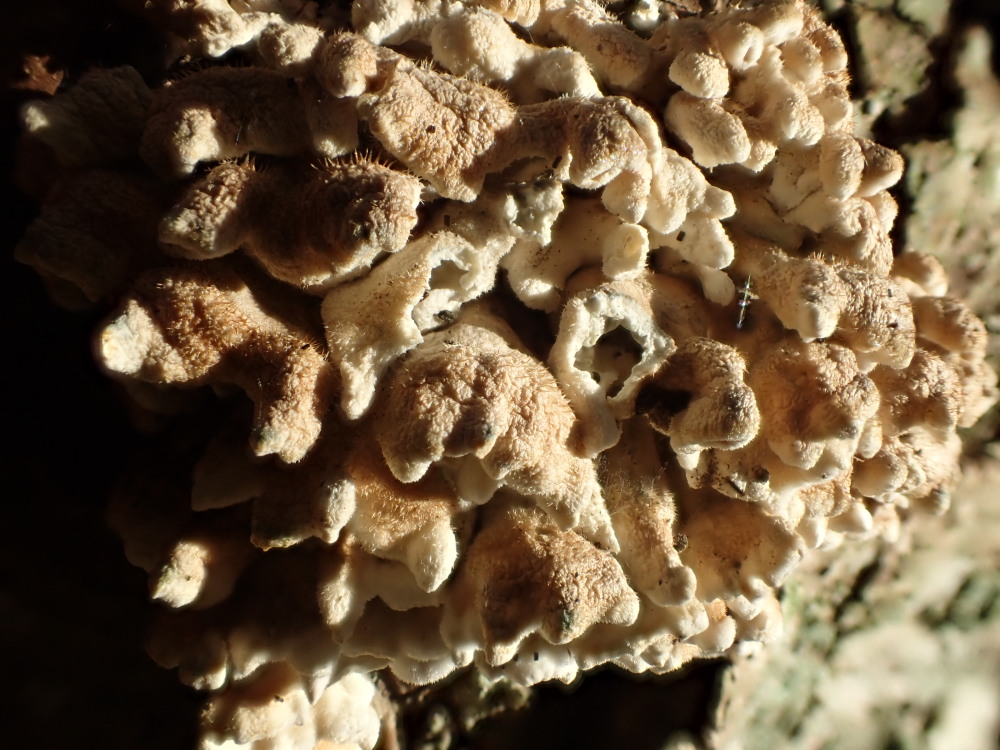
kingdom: Fungi
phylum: Basidiomycota
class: Agaricomycetes
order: Amylocorticiales
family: Amylocorticiaceae
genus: Plicaturopsis
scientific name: Plicaturopsis crispa
